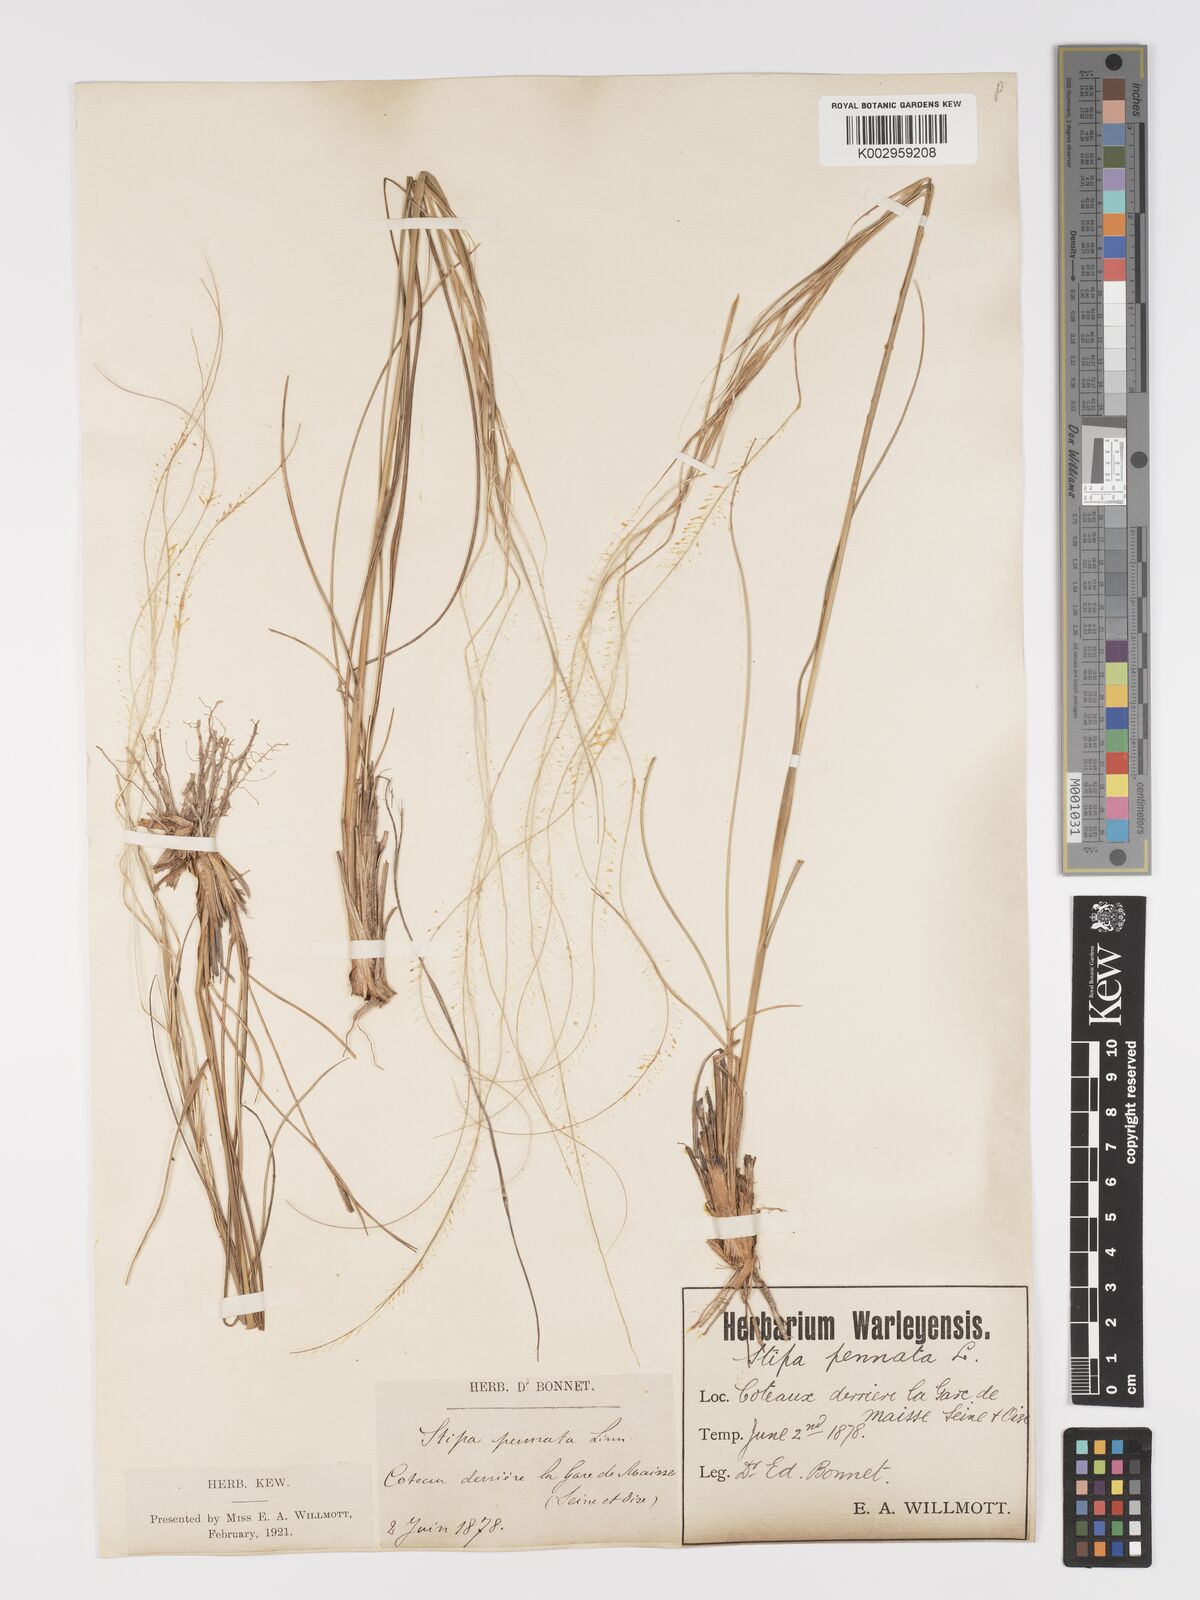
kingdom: Plantae
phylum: Tracheophyta
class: Liliopsida
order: Poales
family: Poaceae
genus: Stipa
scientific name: Stipa pennata
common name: European feather grass
